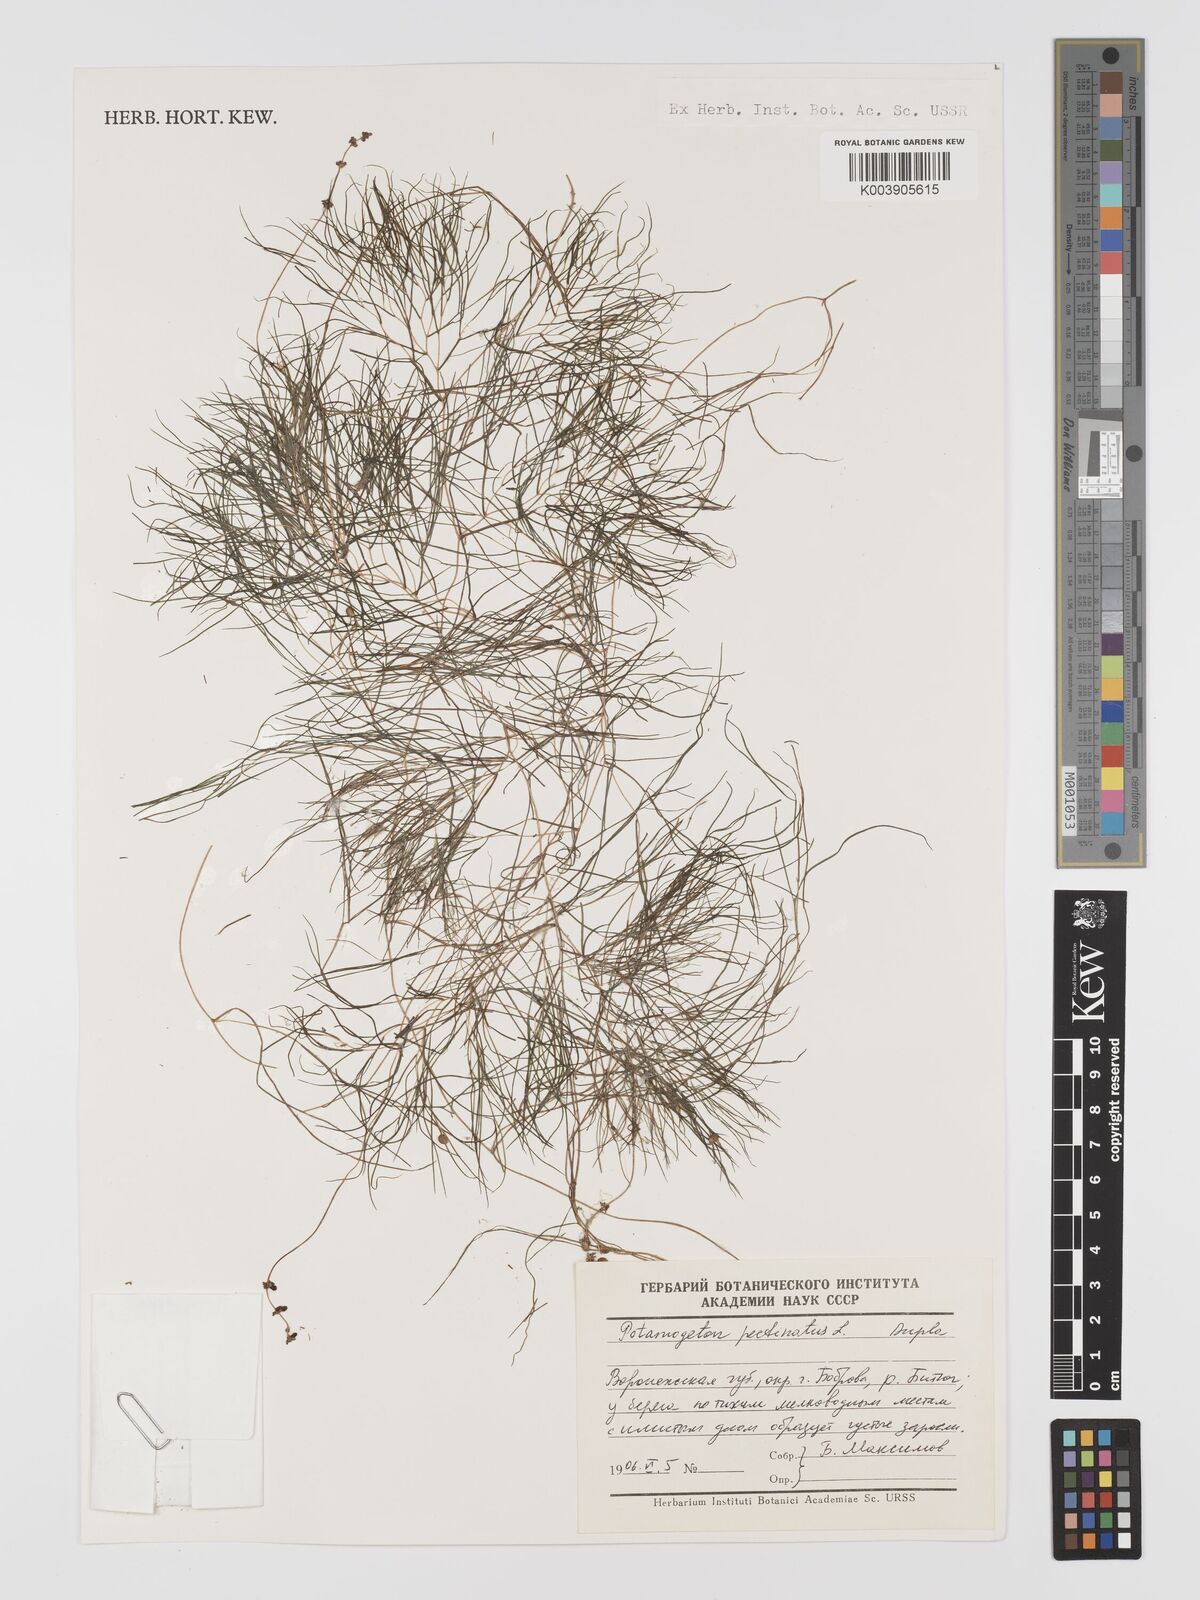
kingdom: Plantae
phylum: Tracheophyta
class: Liliopsida
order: Alismatales
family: Potamogetonaceae
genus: Stuckenia
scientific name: Stuckenia pectinata
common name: Sago pondweed
